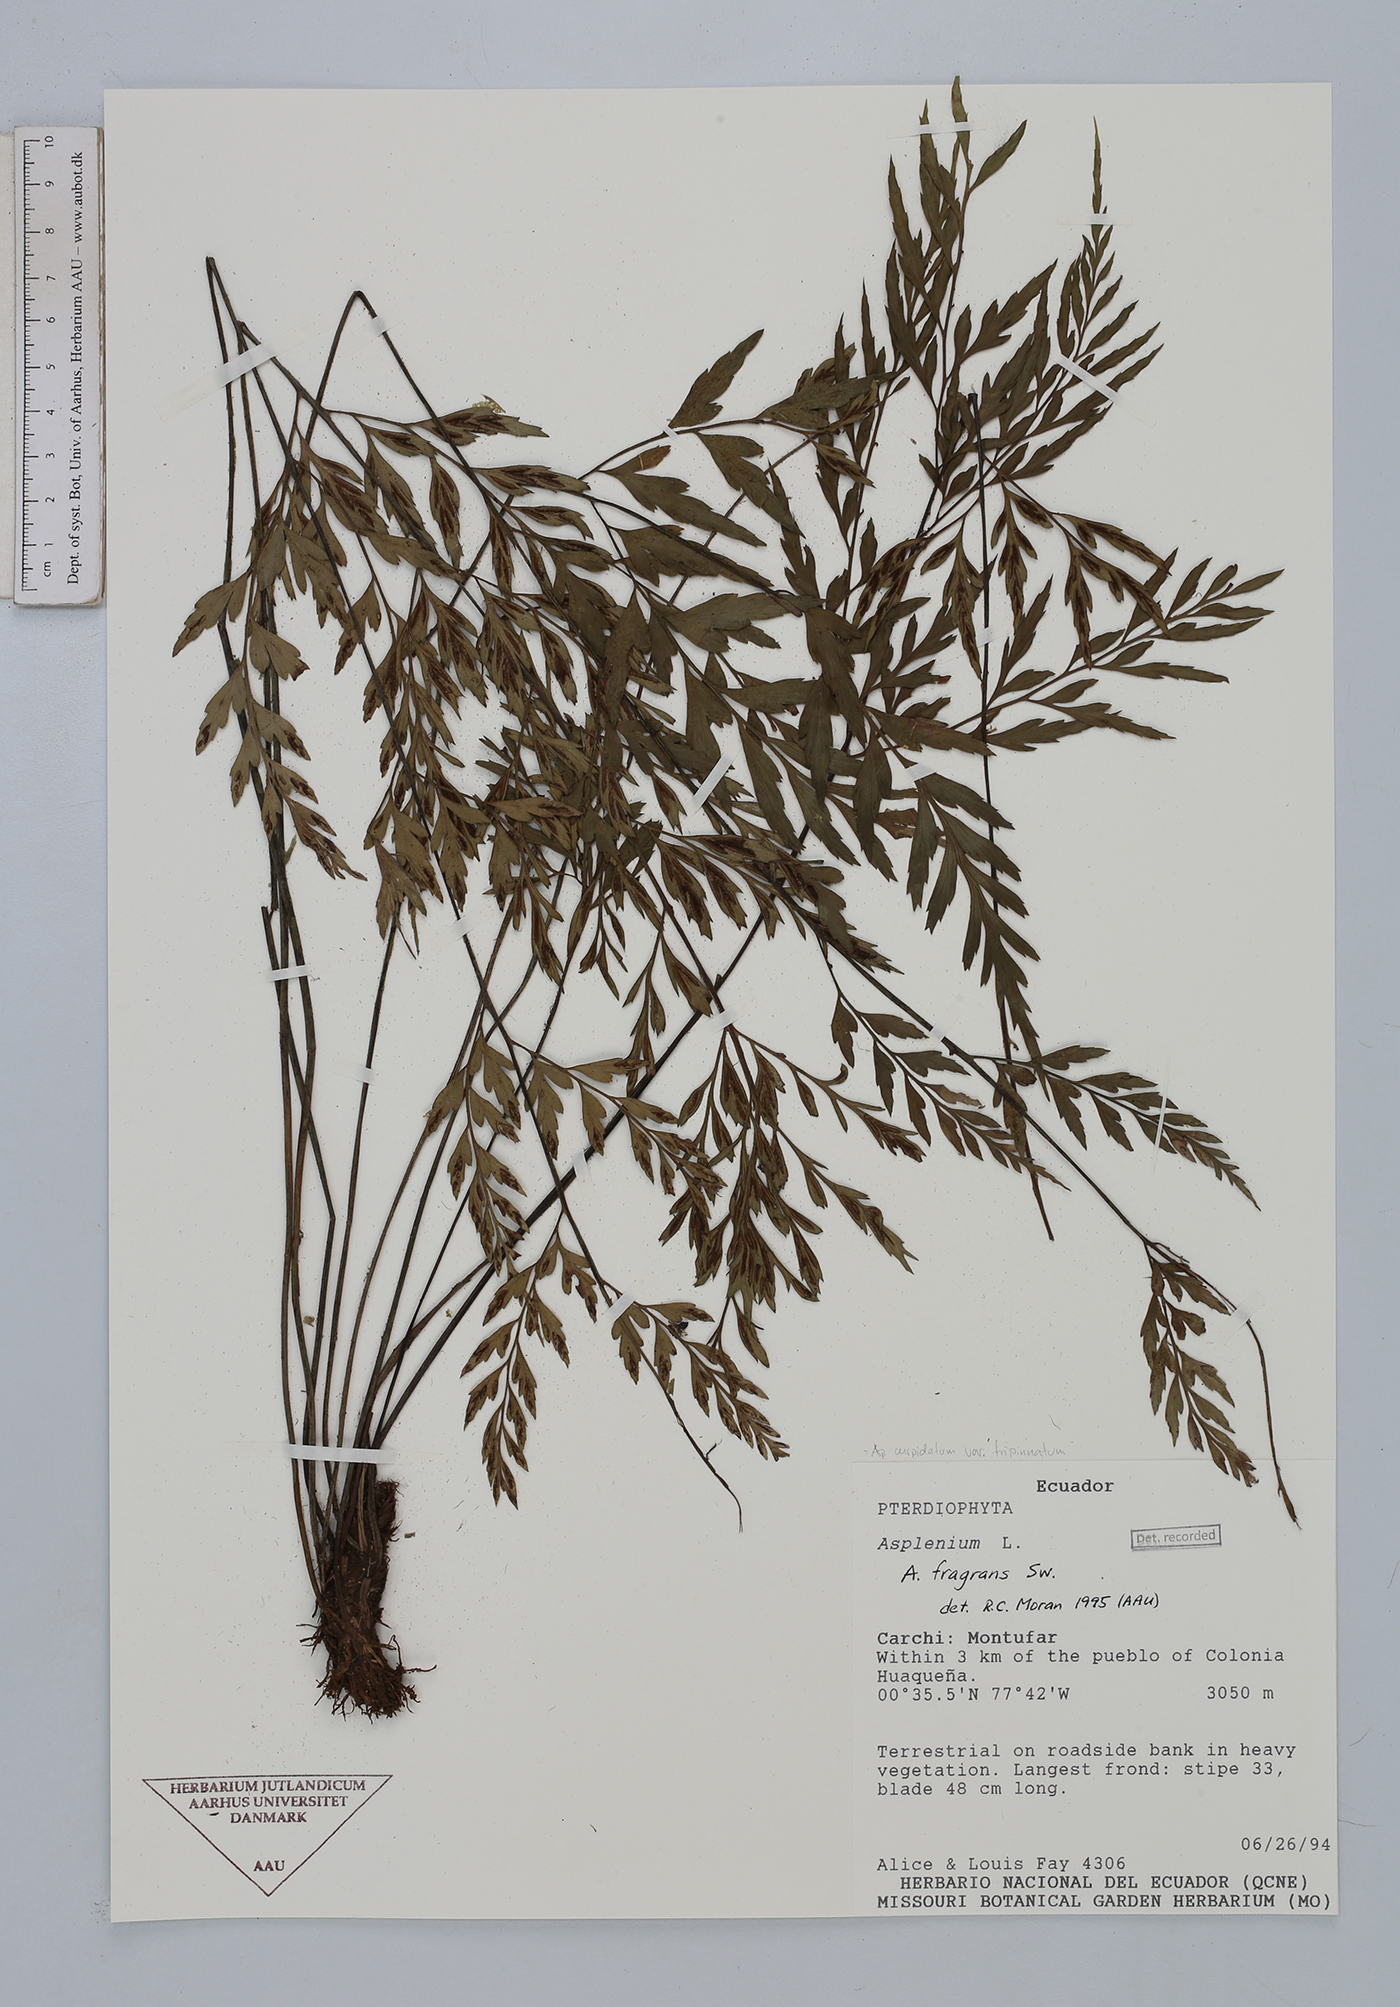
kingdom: Plantae
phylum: Tracheophyta
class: Polypodiopsida
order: Polypodiales
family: Aspleniaceae
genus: Asplenium
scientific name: Asplenium fragrans
